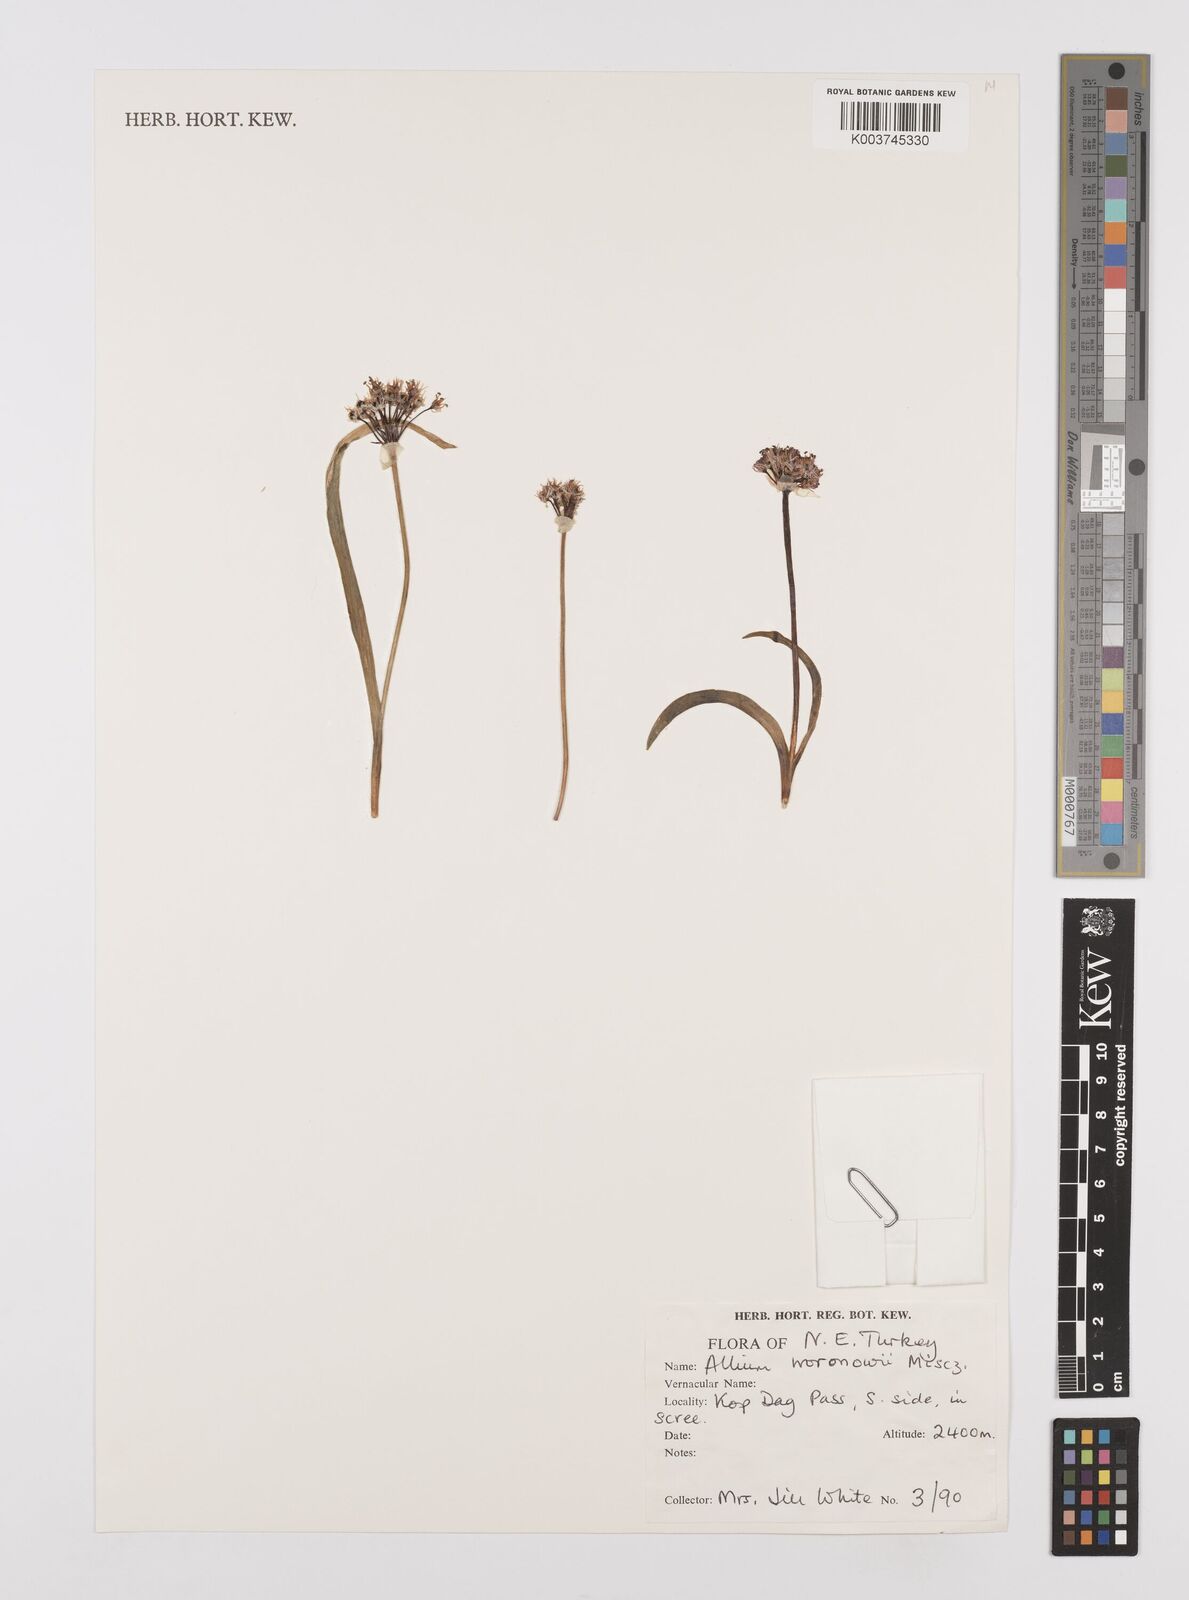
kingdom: Plantae
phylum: Tracheophyta
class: Liliopsida
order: Asparagales
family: Amaryllidaceae
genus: Allium
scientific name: Allium woronowii
